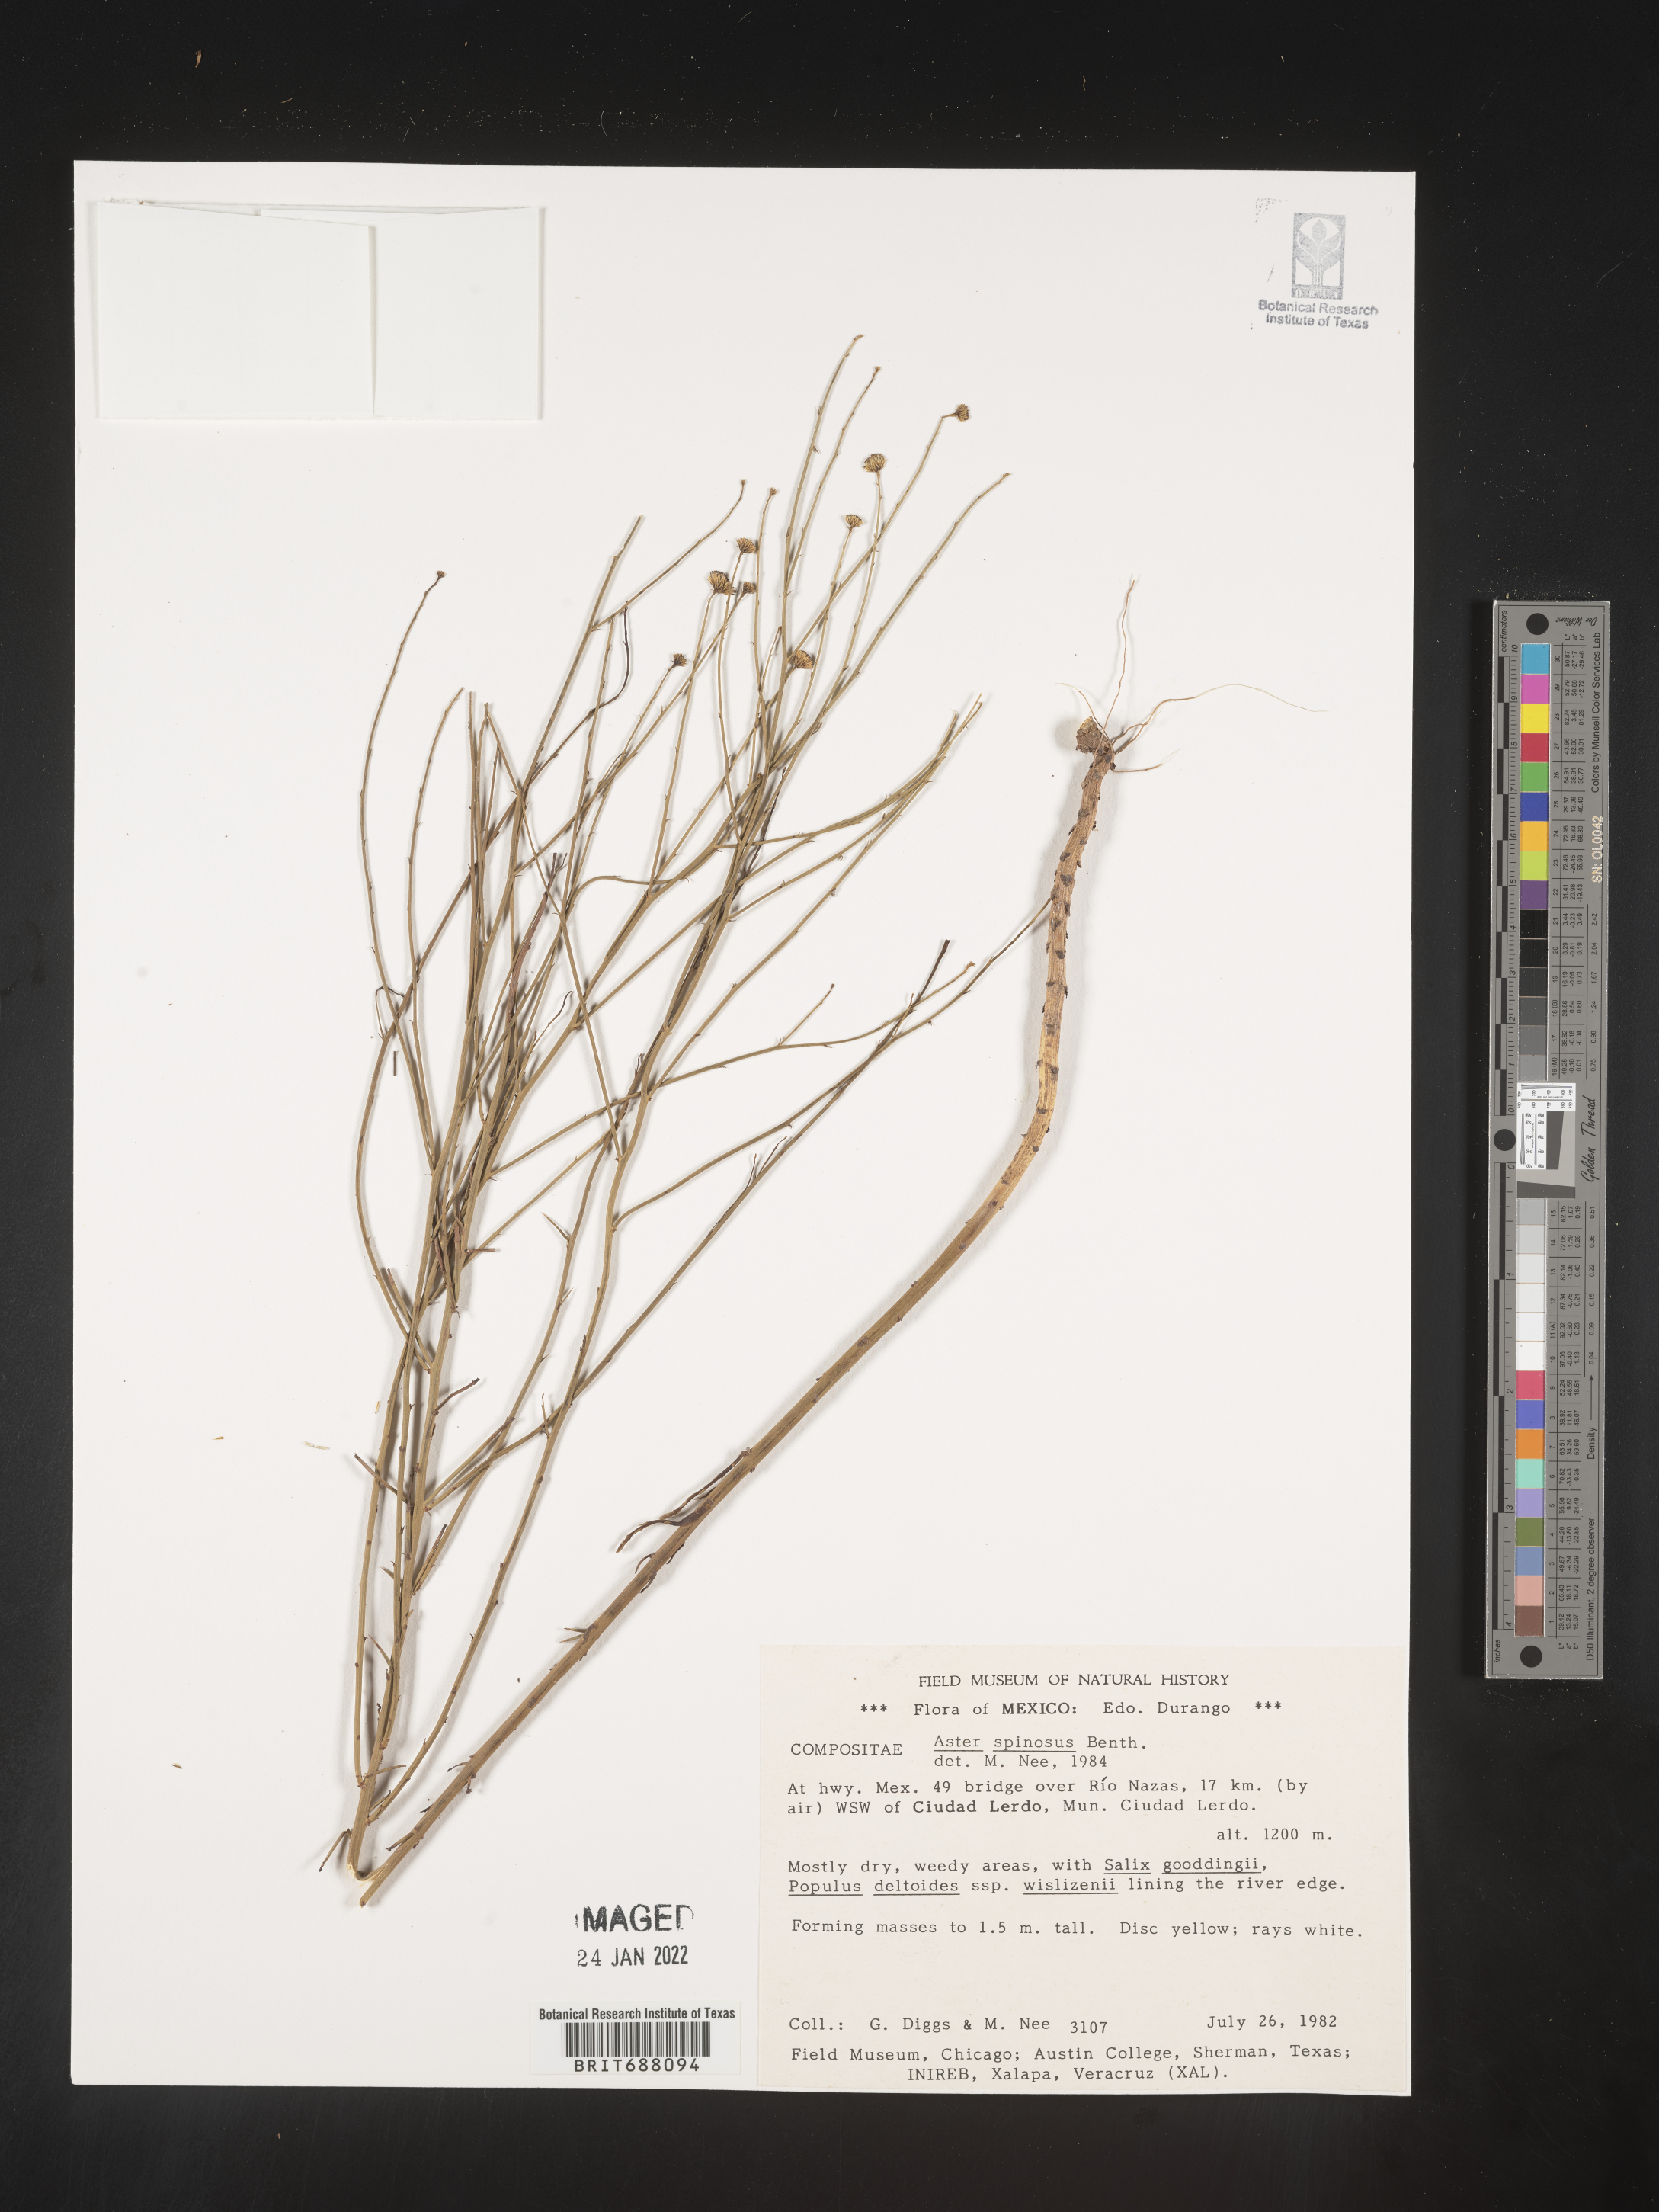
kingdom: Plantae
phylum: Tracheophyta
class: Magnoliopsida
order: Asterales
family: Asteraceae
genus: Chloracantha
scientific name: Chloracantha
